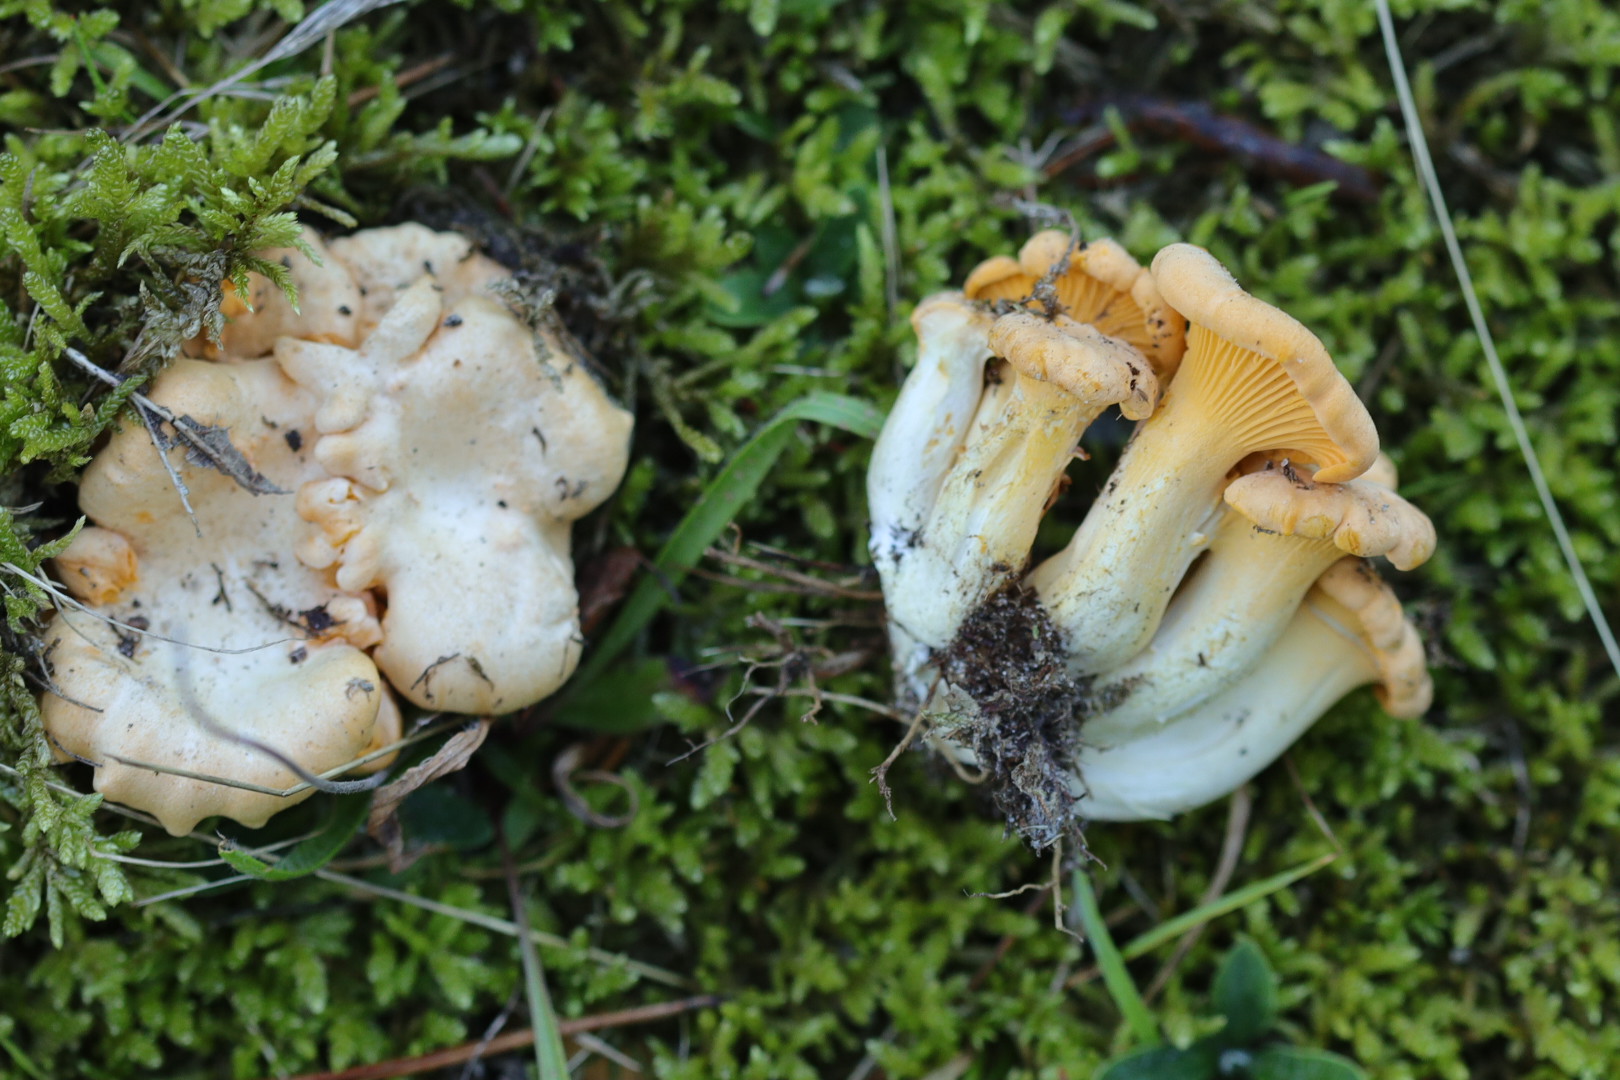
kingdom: Fungi
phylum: Basidiomycota
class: Agaricomycetes
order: Cantharellales
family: Hydnaceae
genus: Cantharellus
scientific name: Cantharellus cibarius
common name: almindelig kantarel
